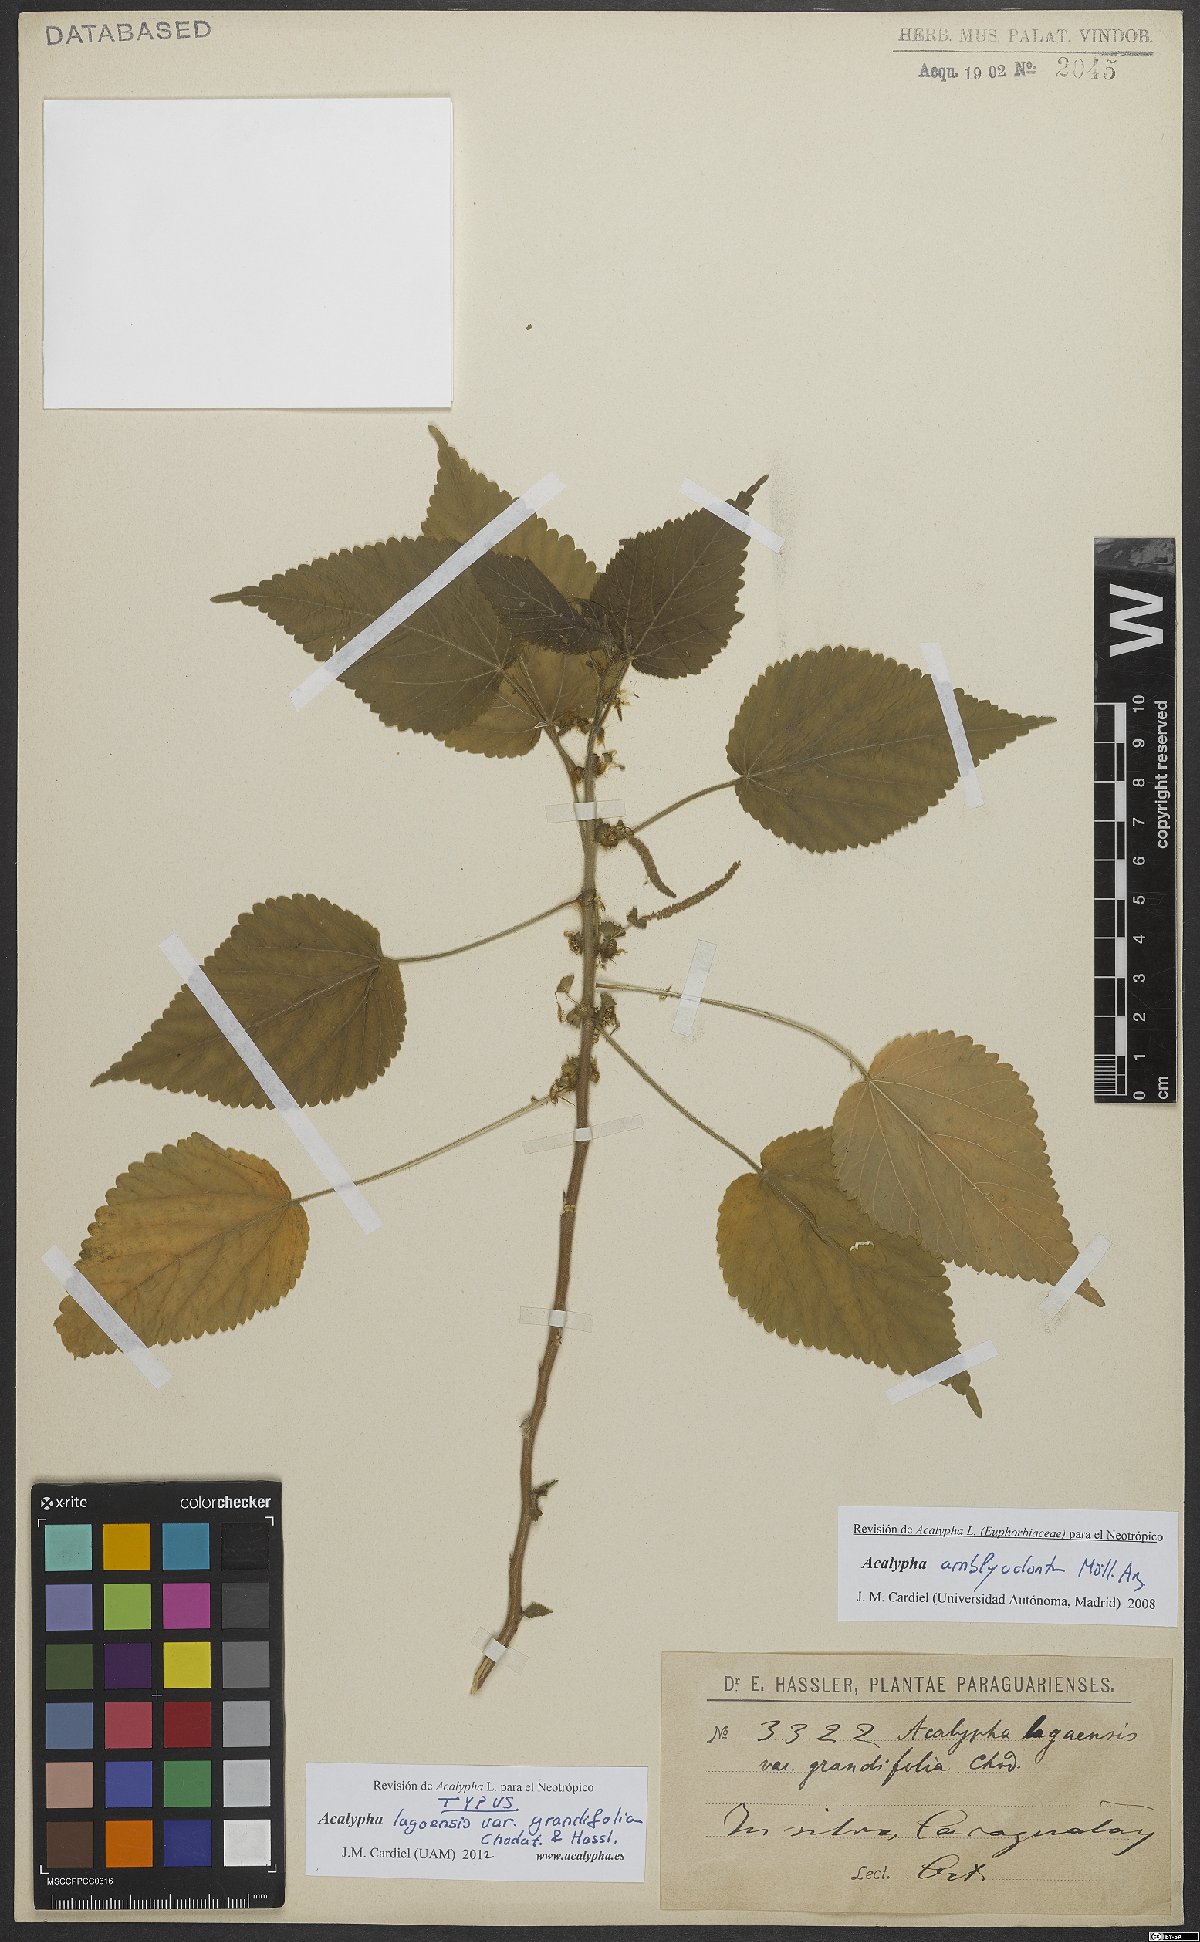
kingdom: Plantae
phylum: Tracheophyta
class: Magnoliopsida
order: Malpighiales
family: Euphorbiaceae
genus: Acalypha
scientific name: Acalypha amblyodonta
